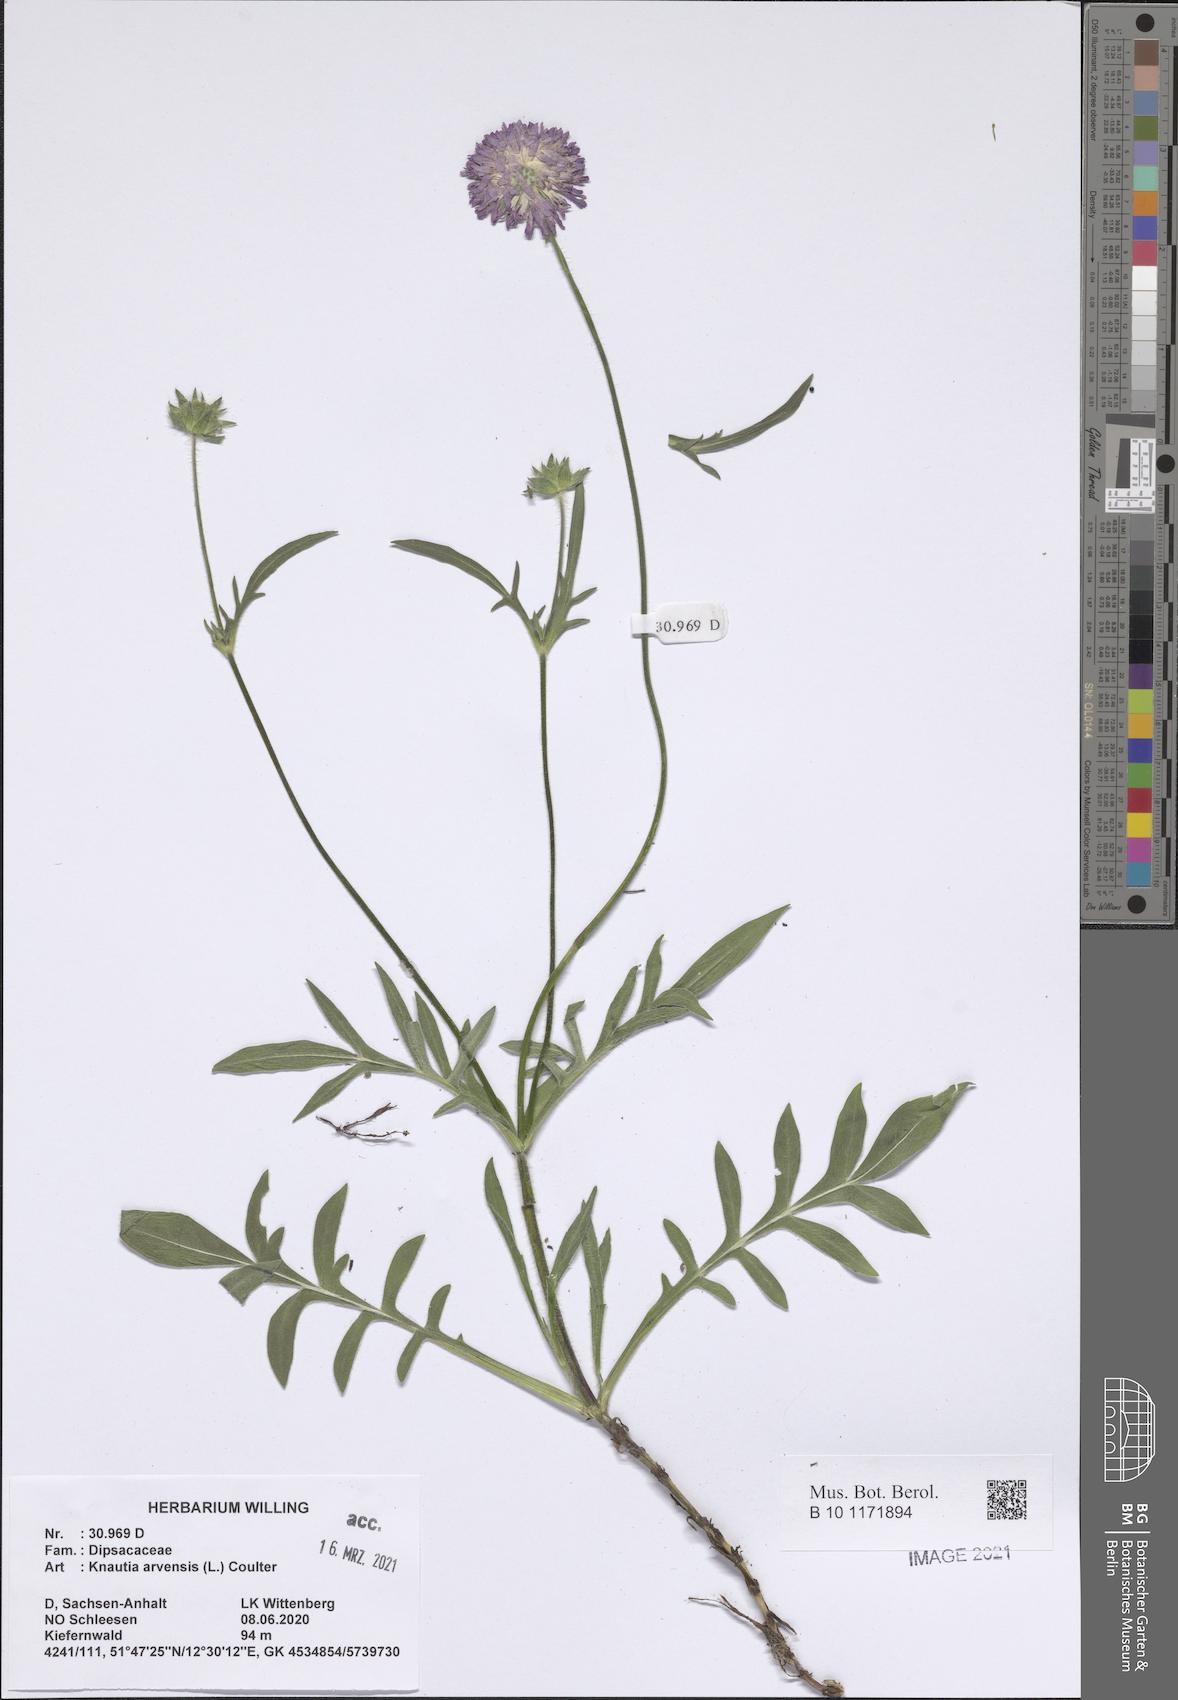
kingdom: Plantae
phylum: Tracheophyta
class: Magnoliopsida
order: Dipsacales
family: Caprifoliaceae
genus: Knautia
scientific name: Knautia arvensis
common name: Field scabiosa
